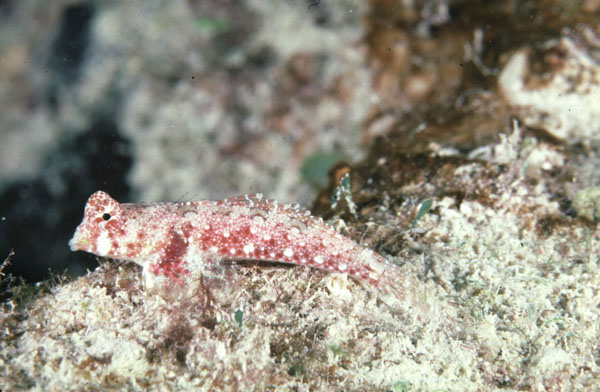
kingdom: Animalia
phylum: Chordata
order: Perciformes
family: Callionymidae
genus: Synchiropus
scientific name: Synchiropus
